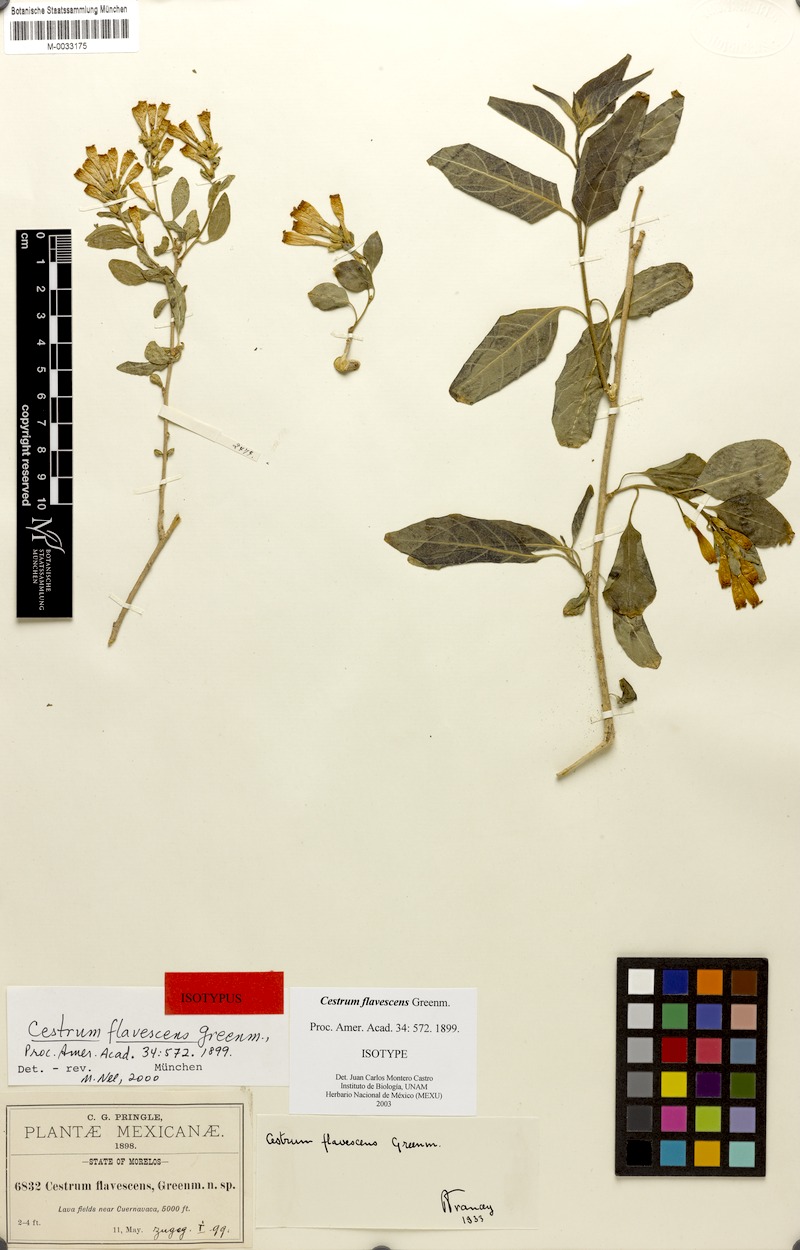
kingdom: Plantae
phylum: Tracheophyta
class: Magnoliopsida
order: Solanales
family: Solanaceae
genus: Cestrum
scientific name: Cestrum flavescens
